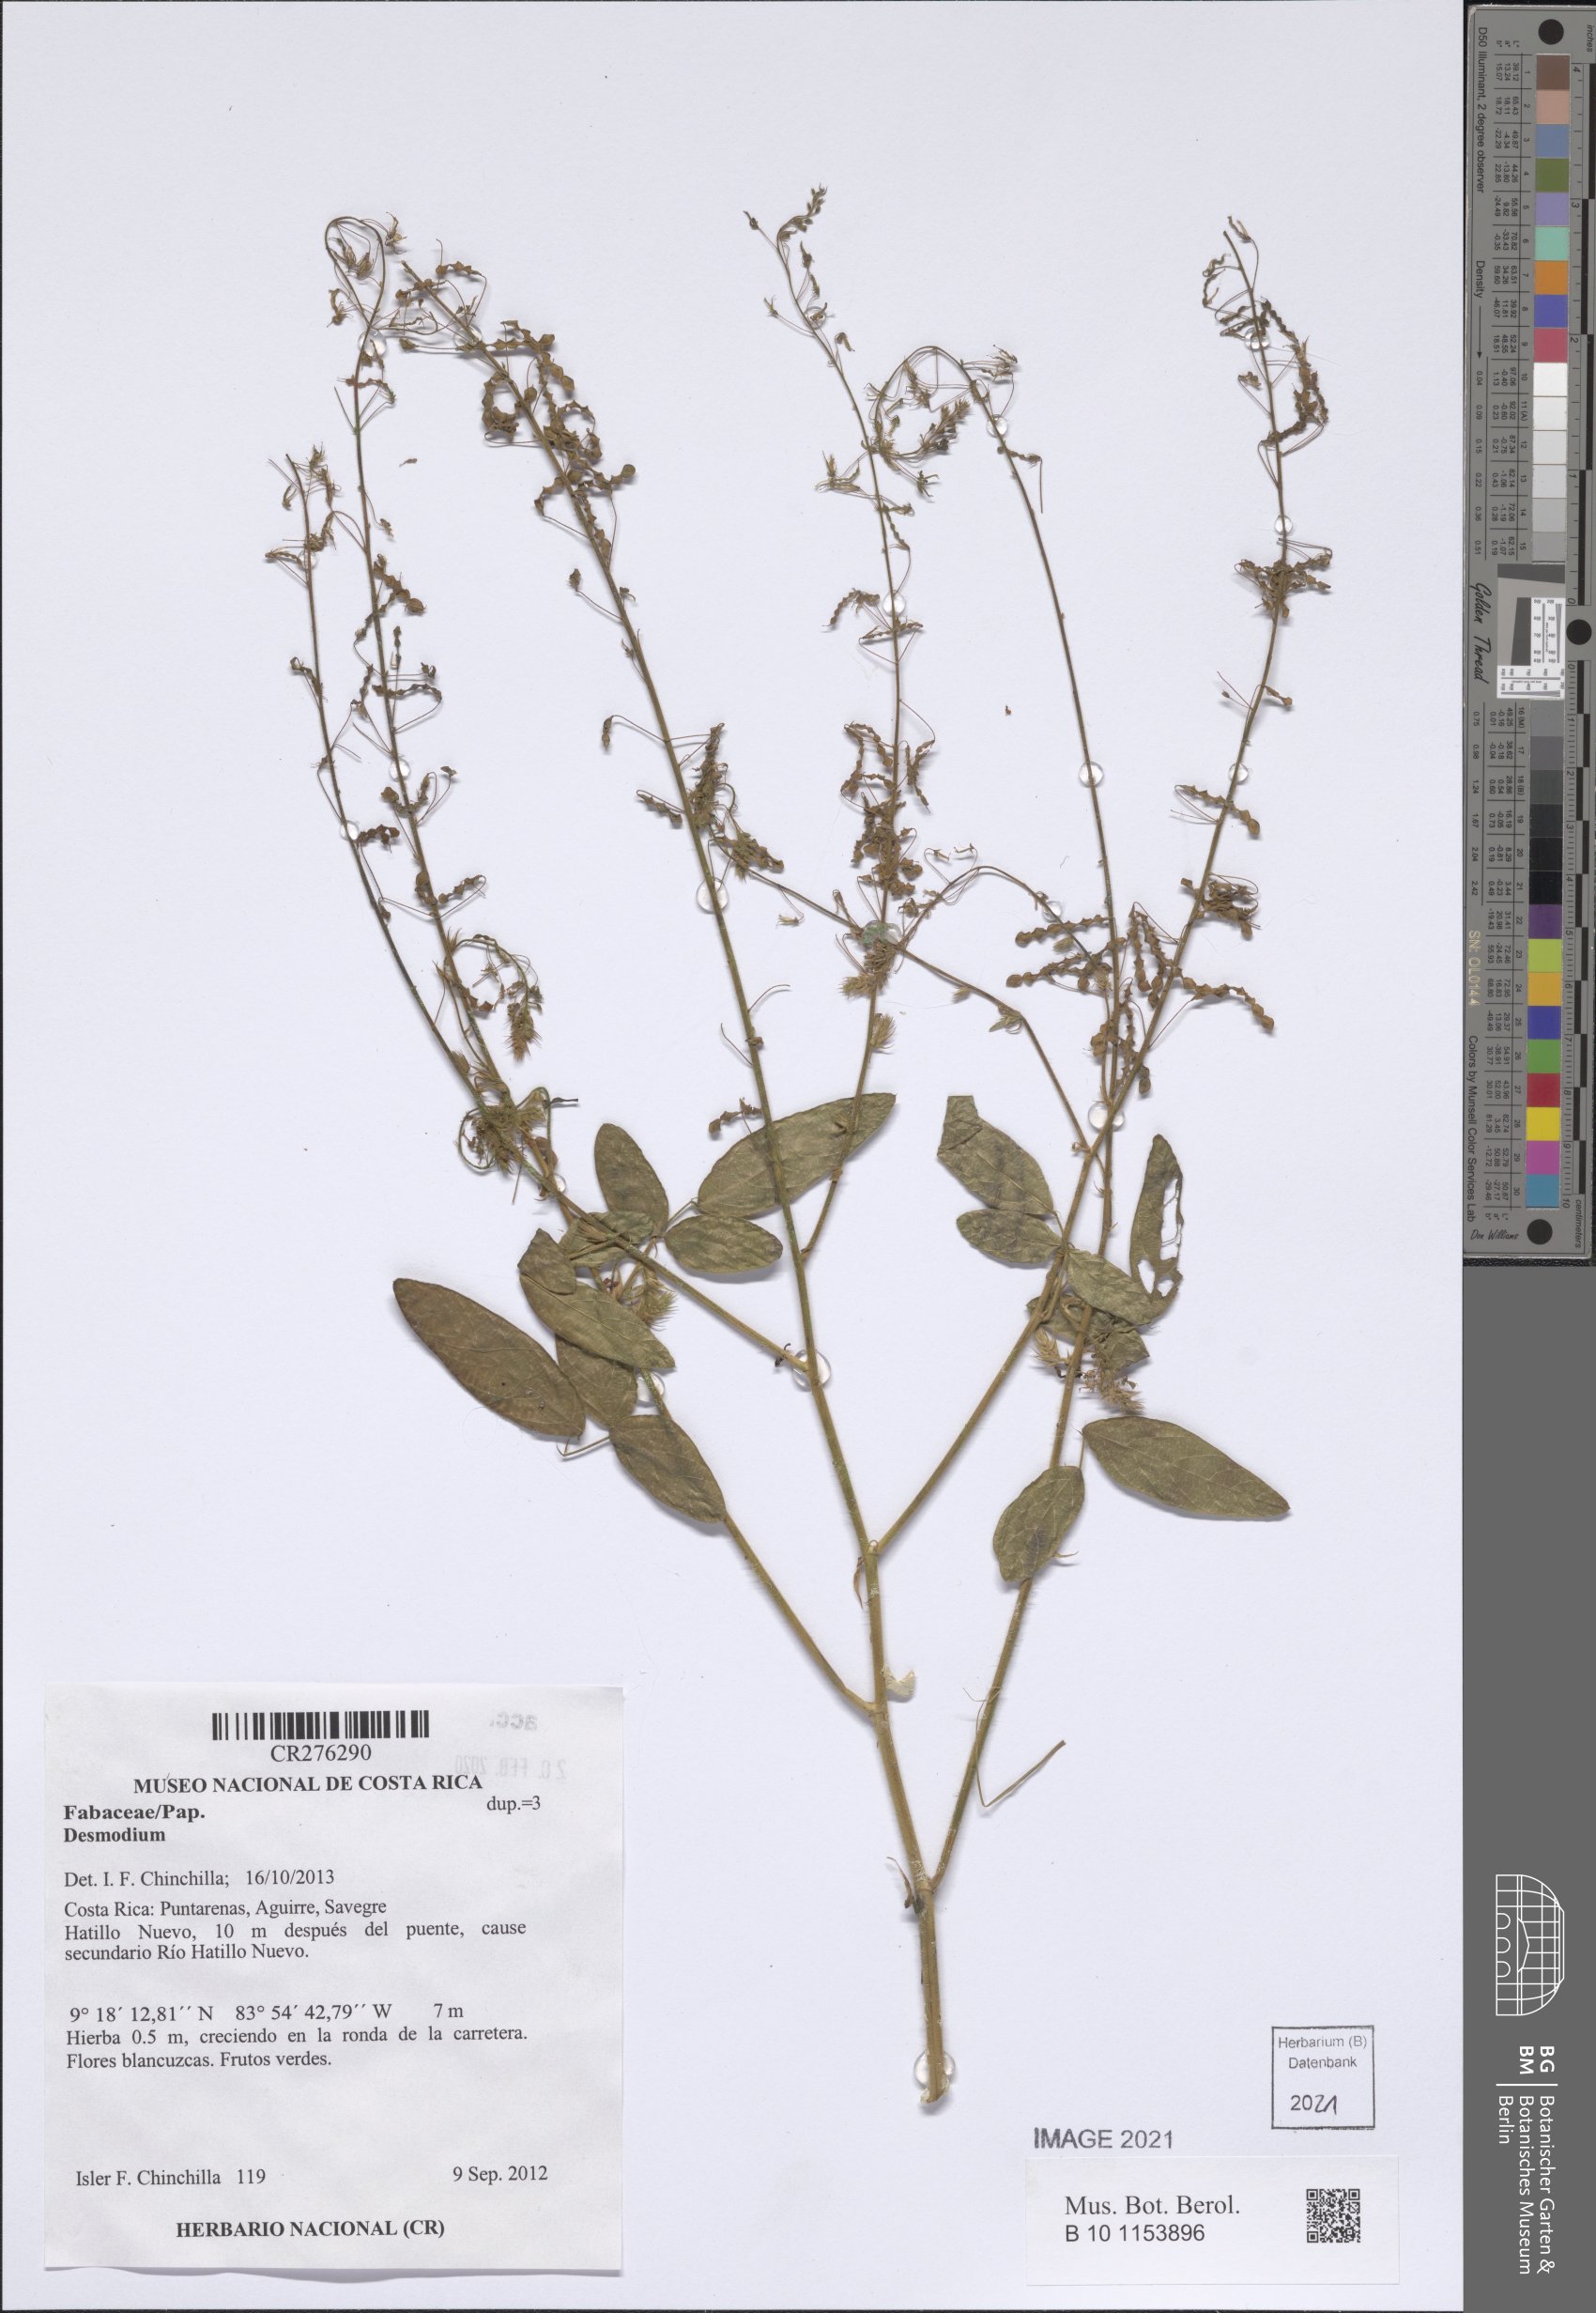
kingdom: Plantae
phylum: Tracheophyta
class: Magnoliopsida
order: Fabales
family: Fabaceae
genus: Desmodium
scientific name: Desmodium
